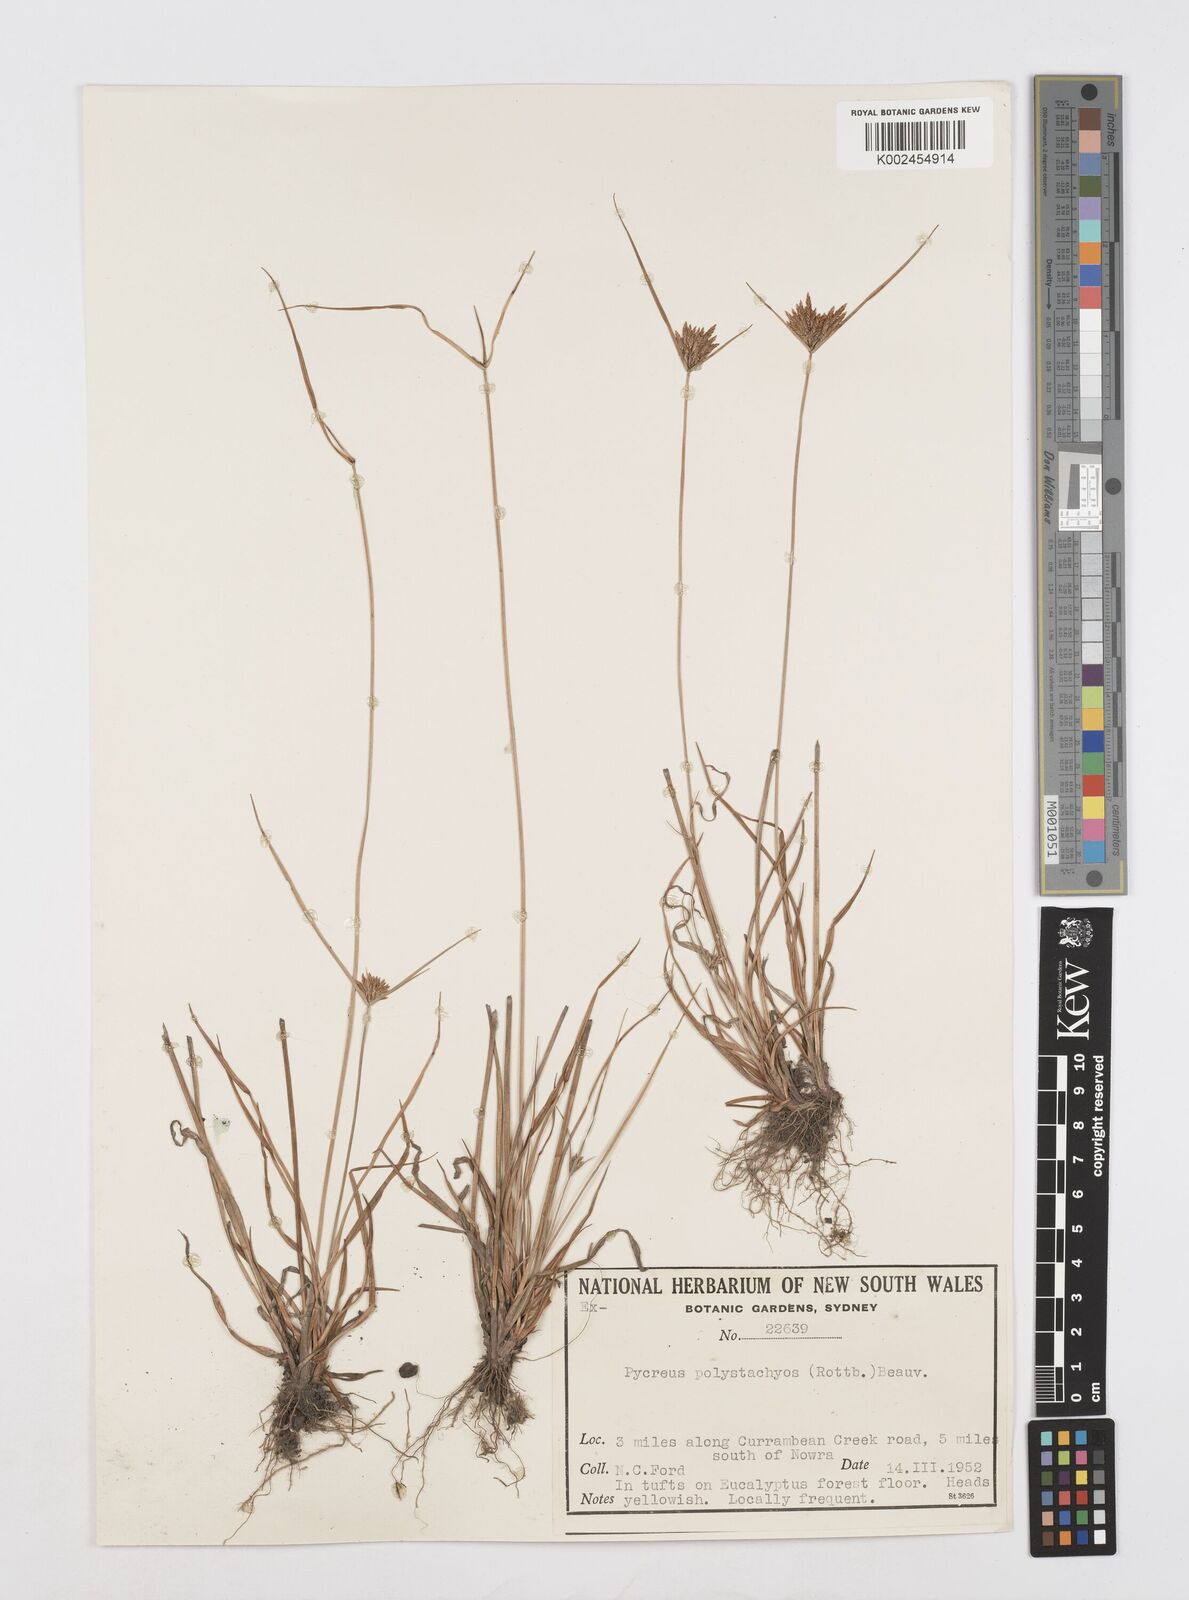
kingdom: Plantae
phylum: Tracheophyta
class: Liliopsida
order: Poales
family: Cyperaceae
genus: Cyperus
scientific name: Cyperus polystachyos
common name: Bunchy flat sedge
